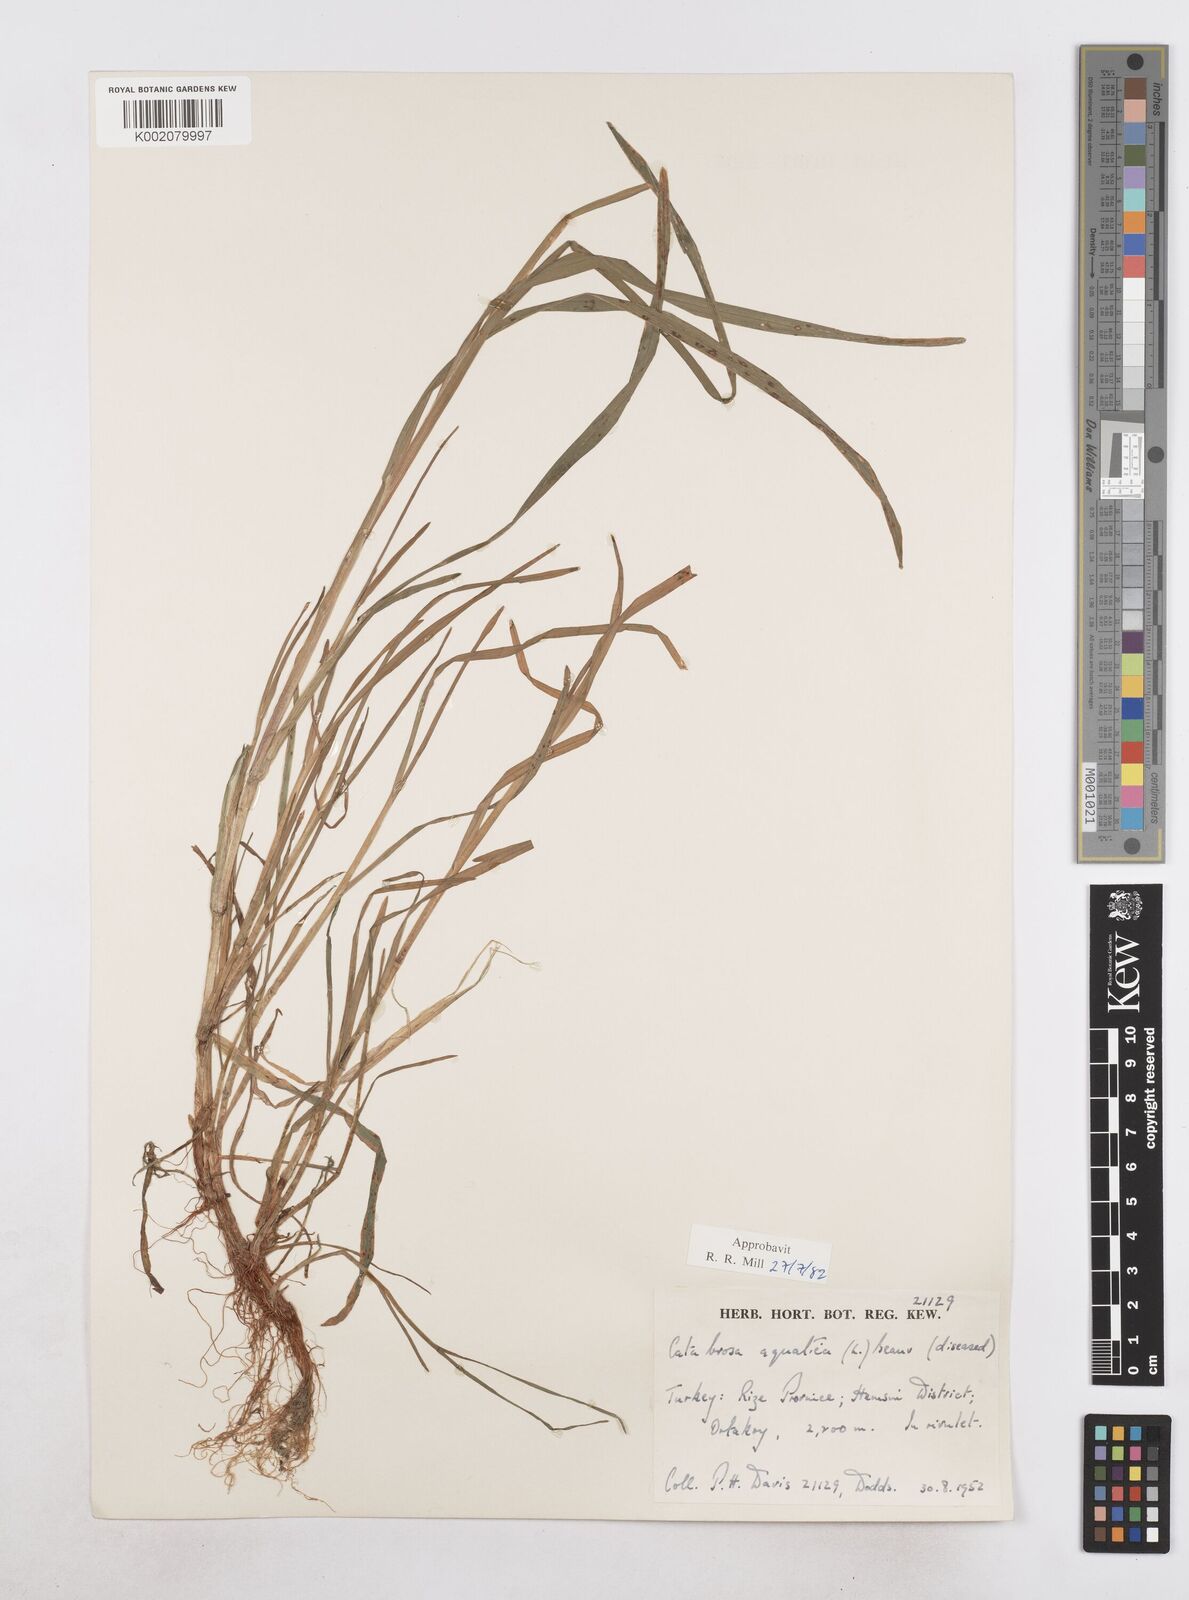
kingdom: Plantae
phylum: Tracheophyta
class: Liliopsida
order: Poales
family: Poaceae
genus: Catabrosa
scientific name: Catabrosa aquatica
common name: Whorl-grass
